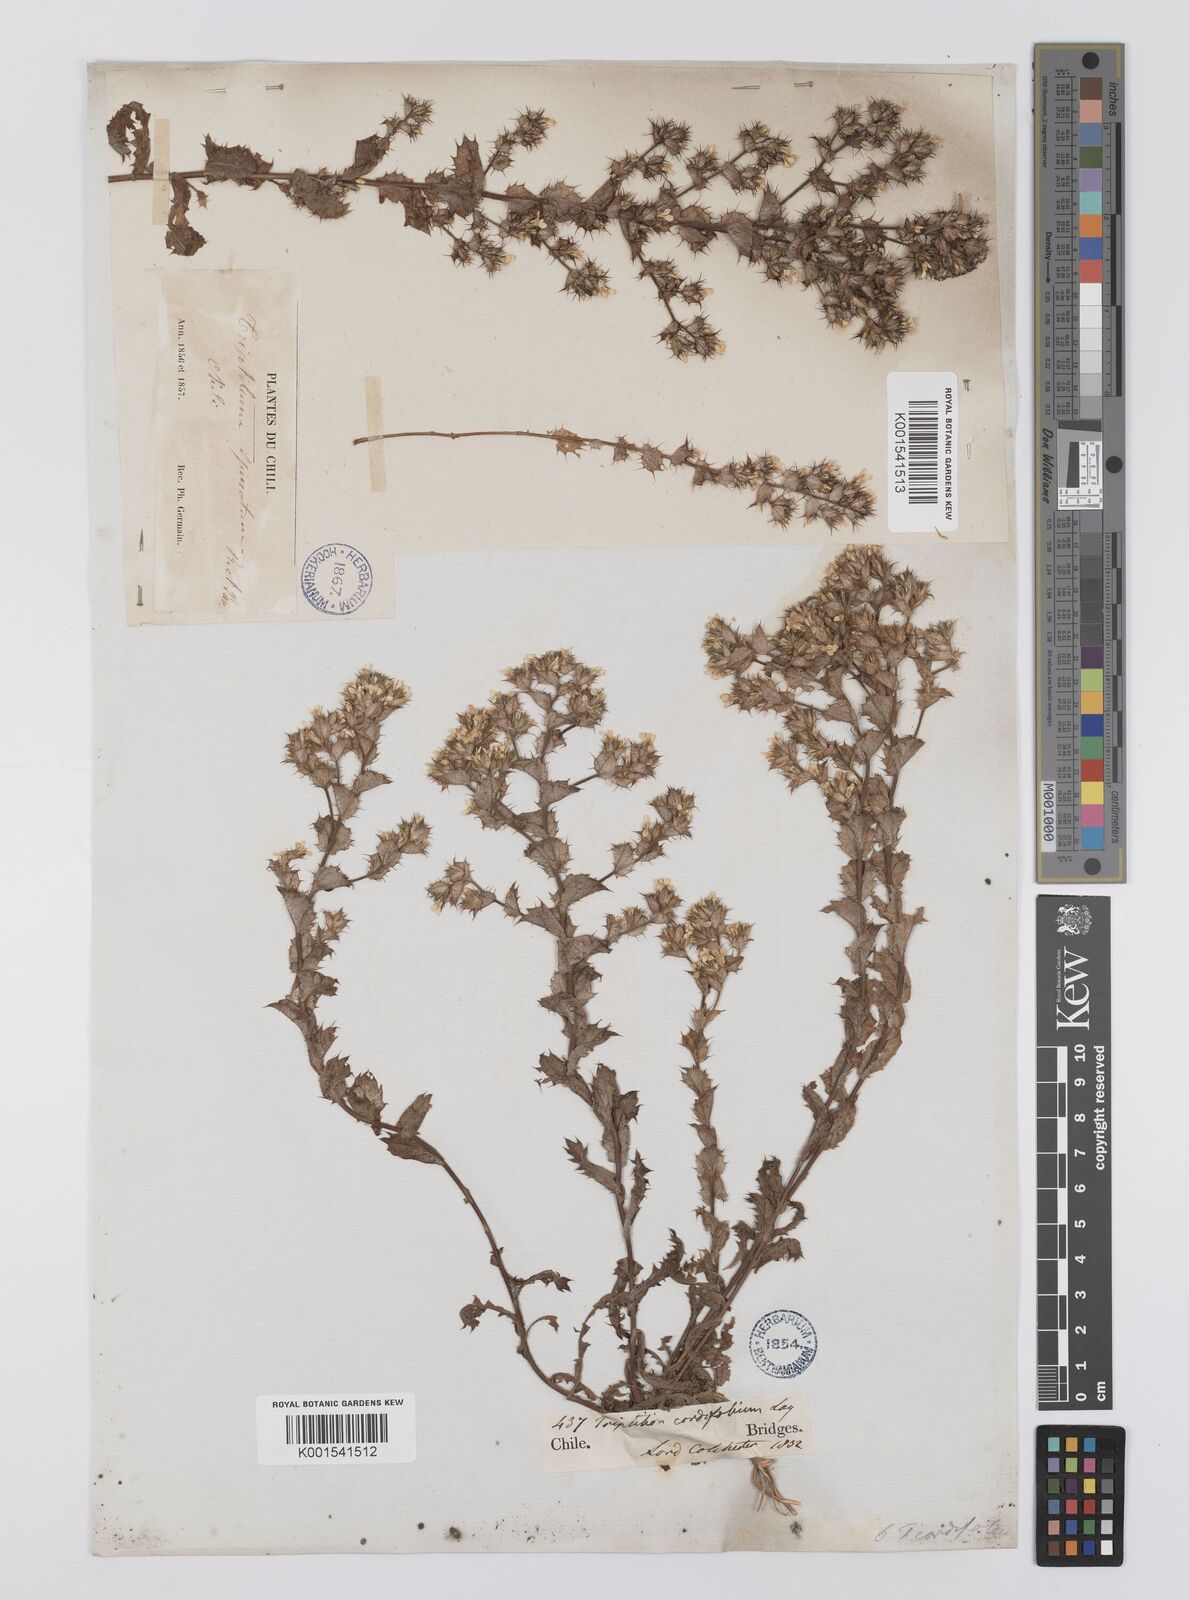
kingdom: Plantae
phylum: Tracheophyta
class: Magnoliopsida
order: Asterales
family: Asteraceae
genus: Triptilion
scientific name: Triptilion cordifolium
